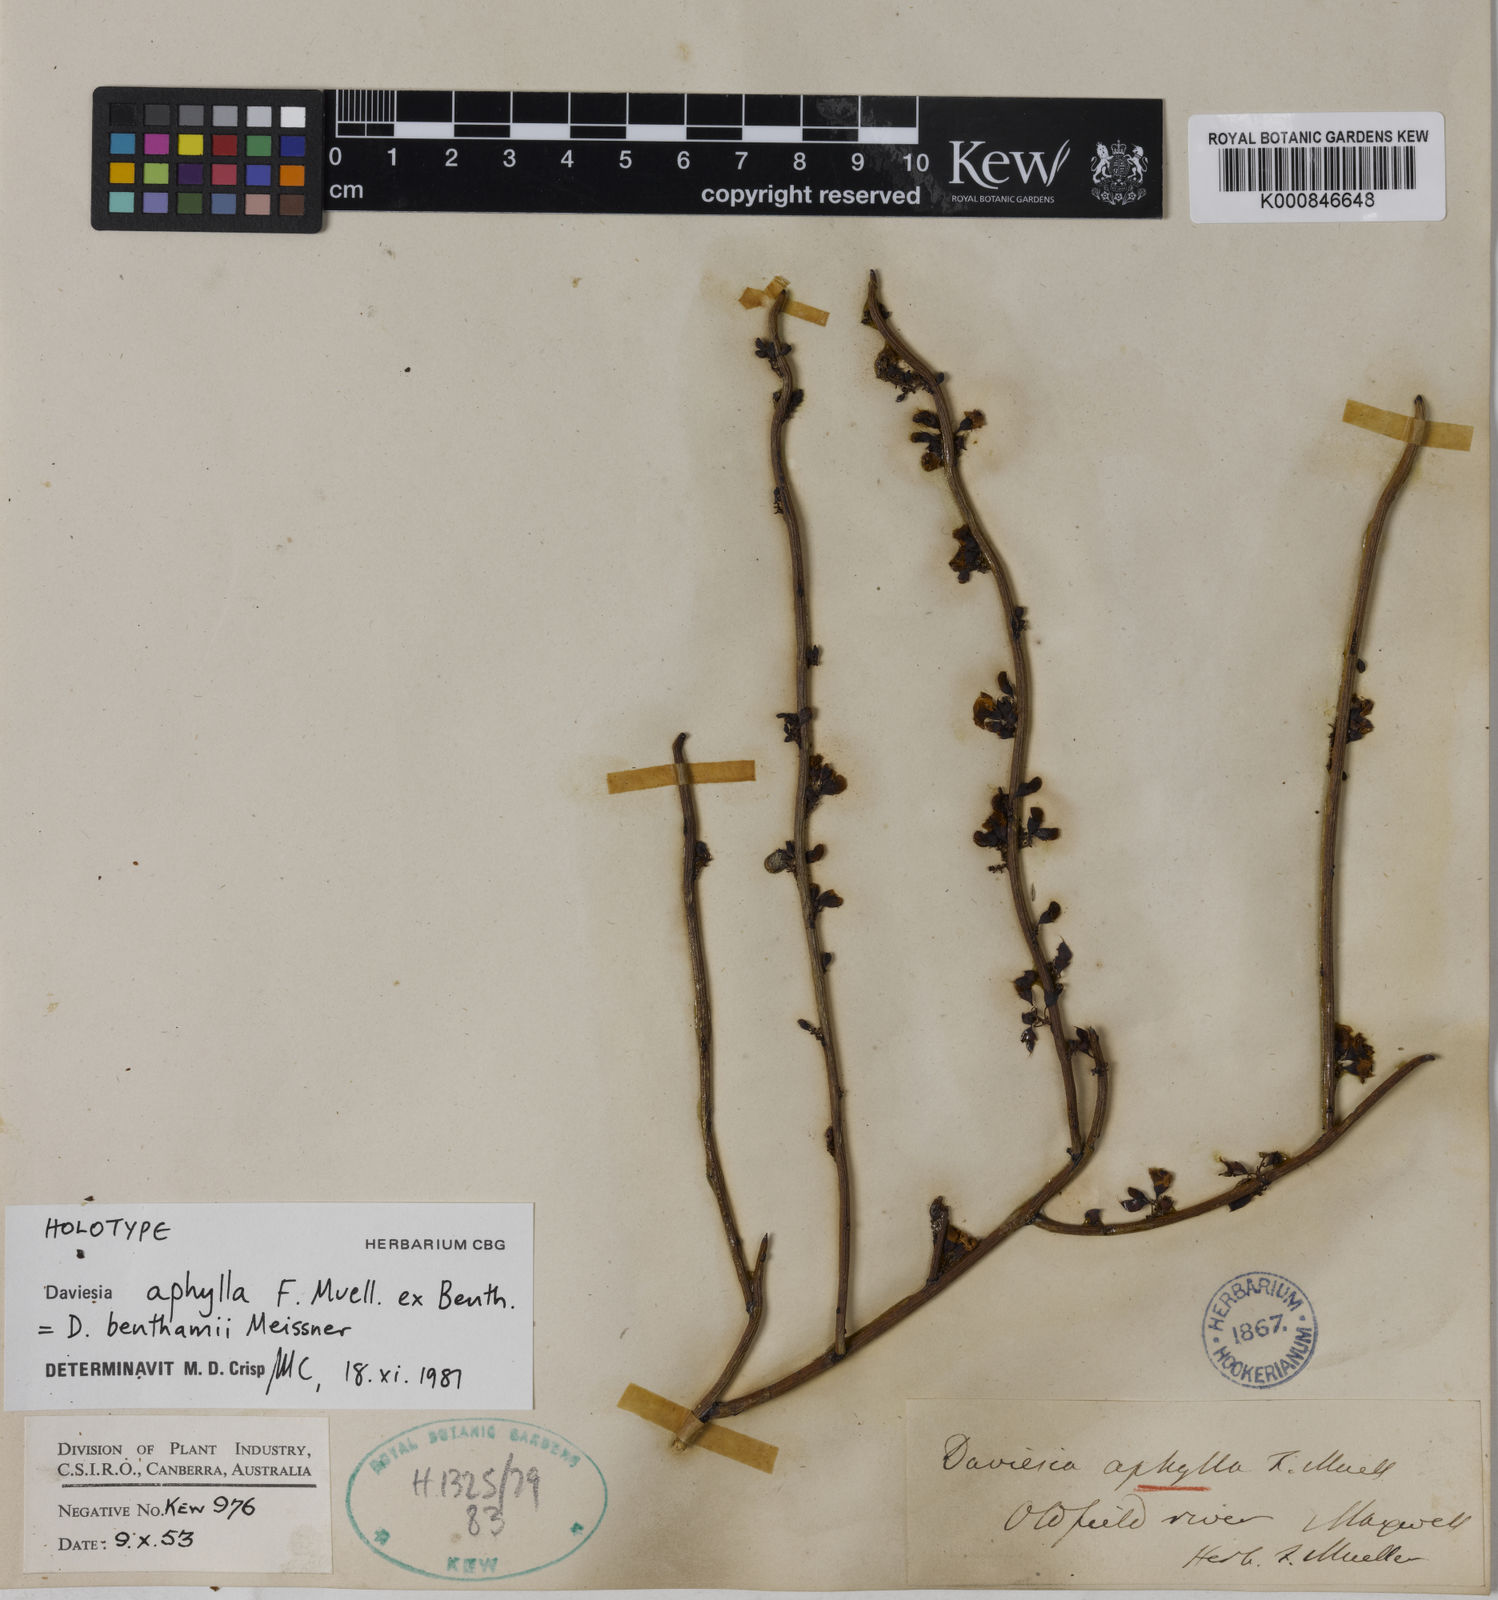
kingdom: Plantae
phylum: Tracheophyta
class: Magnoliopsida
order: Fabales
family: Fabaceae
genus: Daviesia
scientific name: Daviesia benthamii
